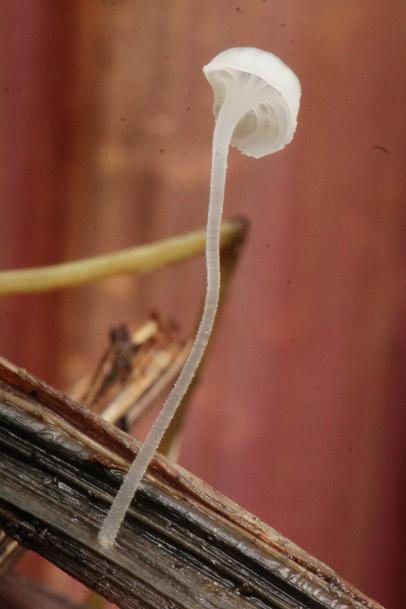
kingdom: Fungi
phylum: Basidiomycota
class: Agaricomycetes
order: Agaricales
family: Mycenaceae
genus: Hemimycena
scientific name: Hemimycena mauretanica
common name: smalsporet huesvamp
